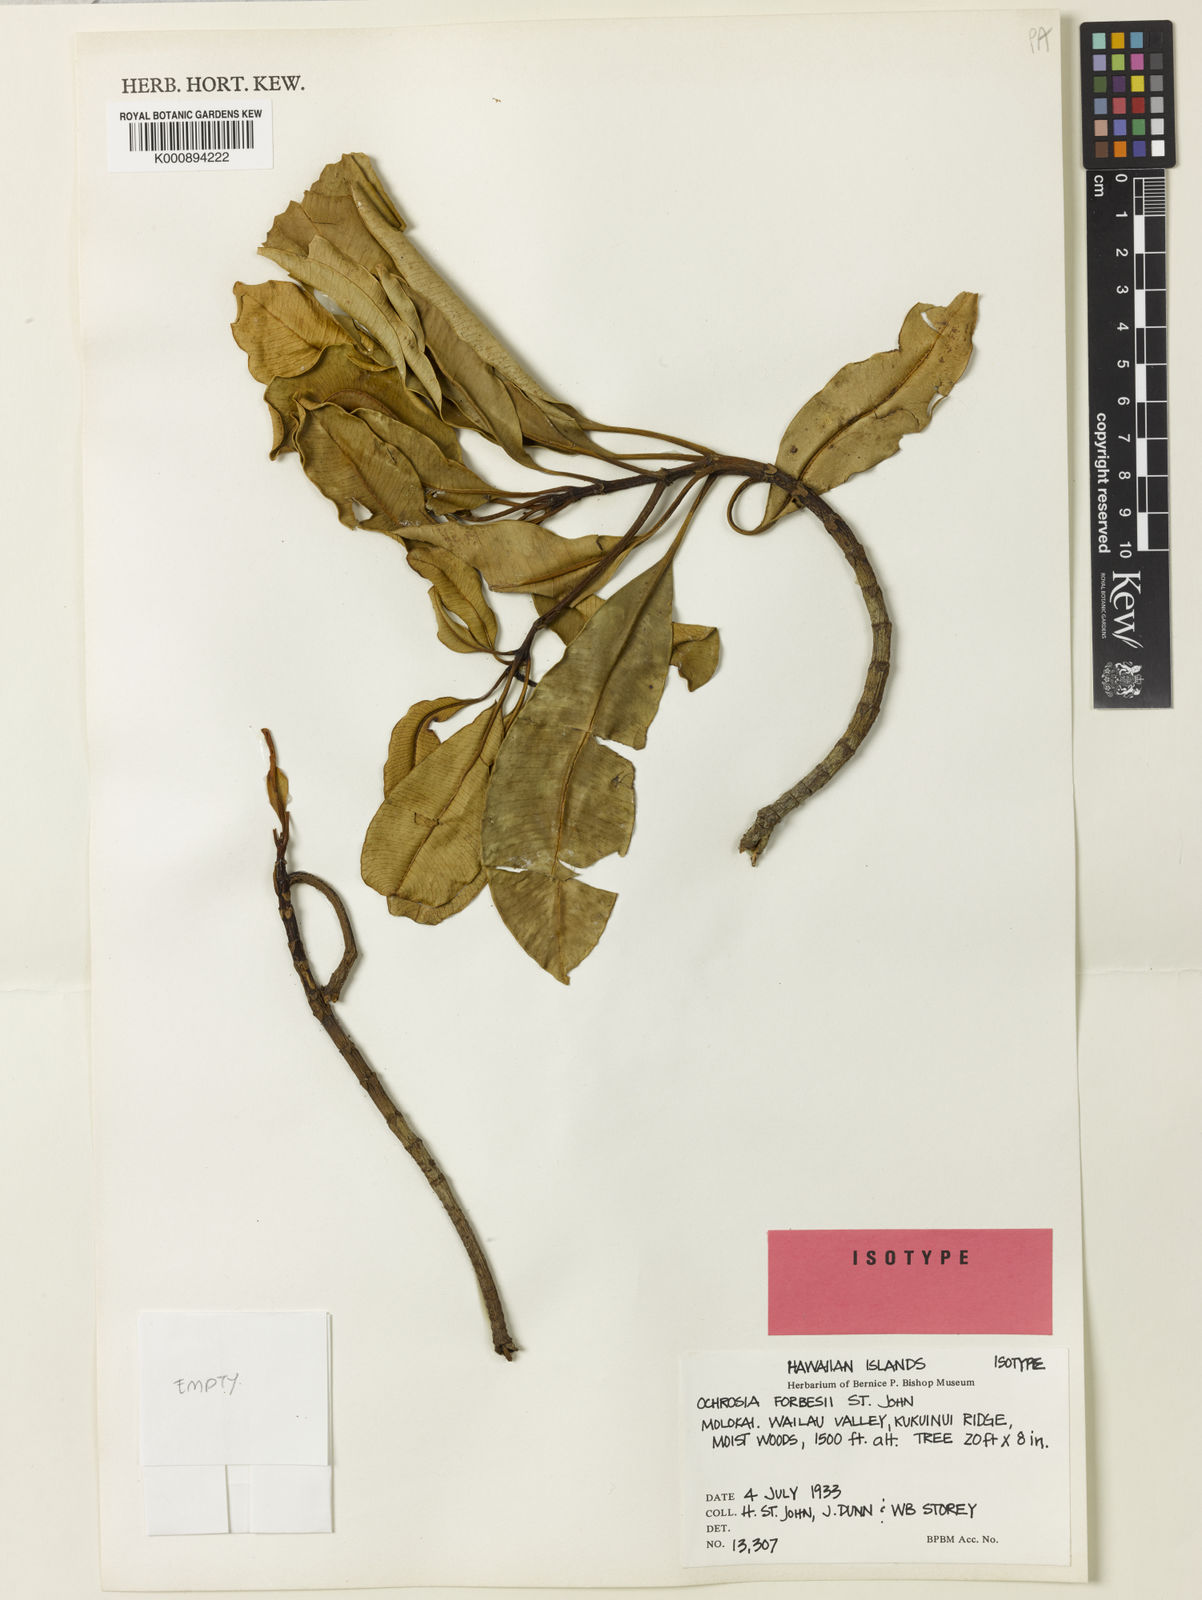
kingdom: Plantae
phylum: Tracheophyta
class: Magnoliopsida
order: Gentianales
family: Apocynaceae
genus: Ochrosia
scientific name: Ochrosia compta
